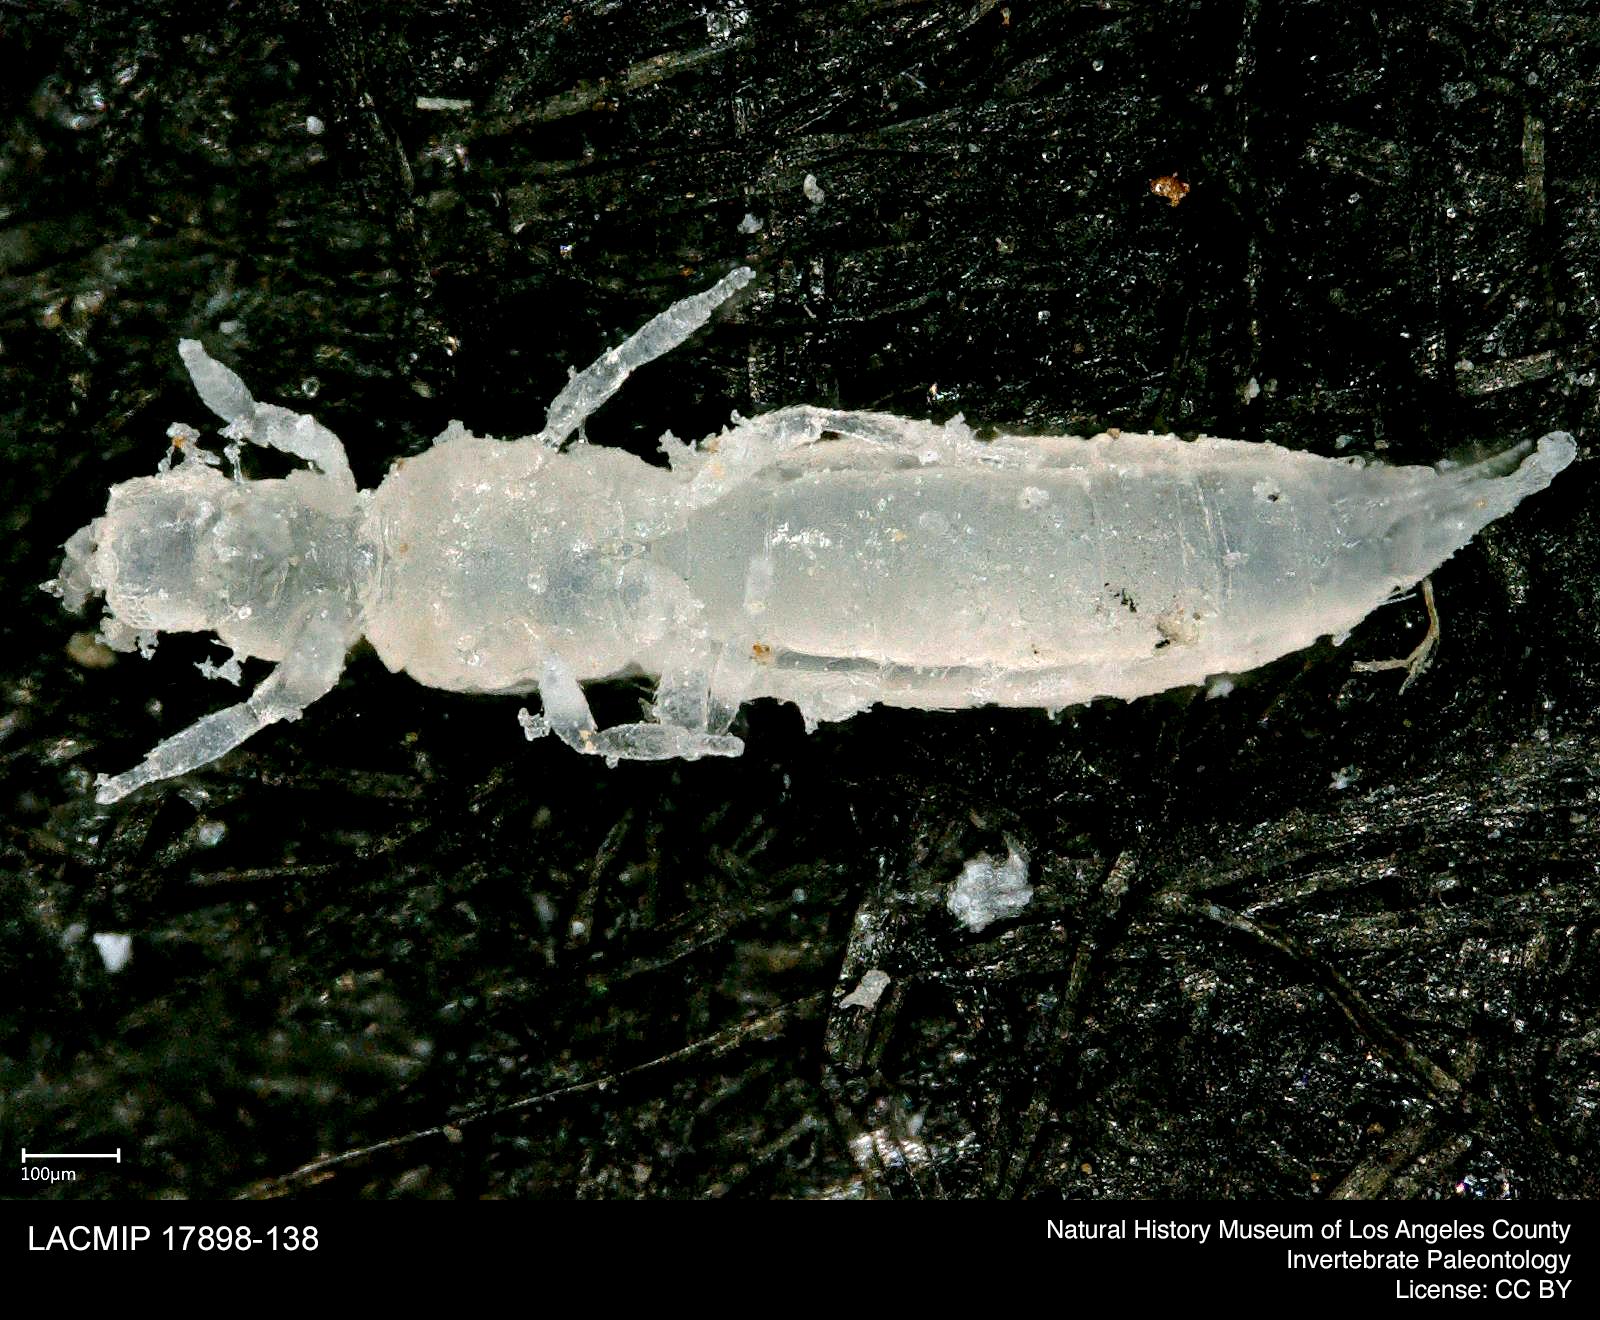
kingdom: Animalia
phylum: Arthropoda
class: Insecta
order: Thysanoptera
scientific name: Thysanoptera
